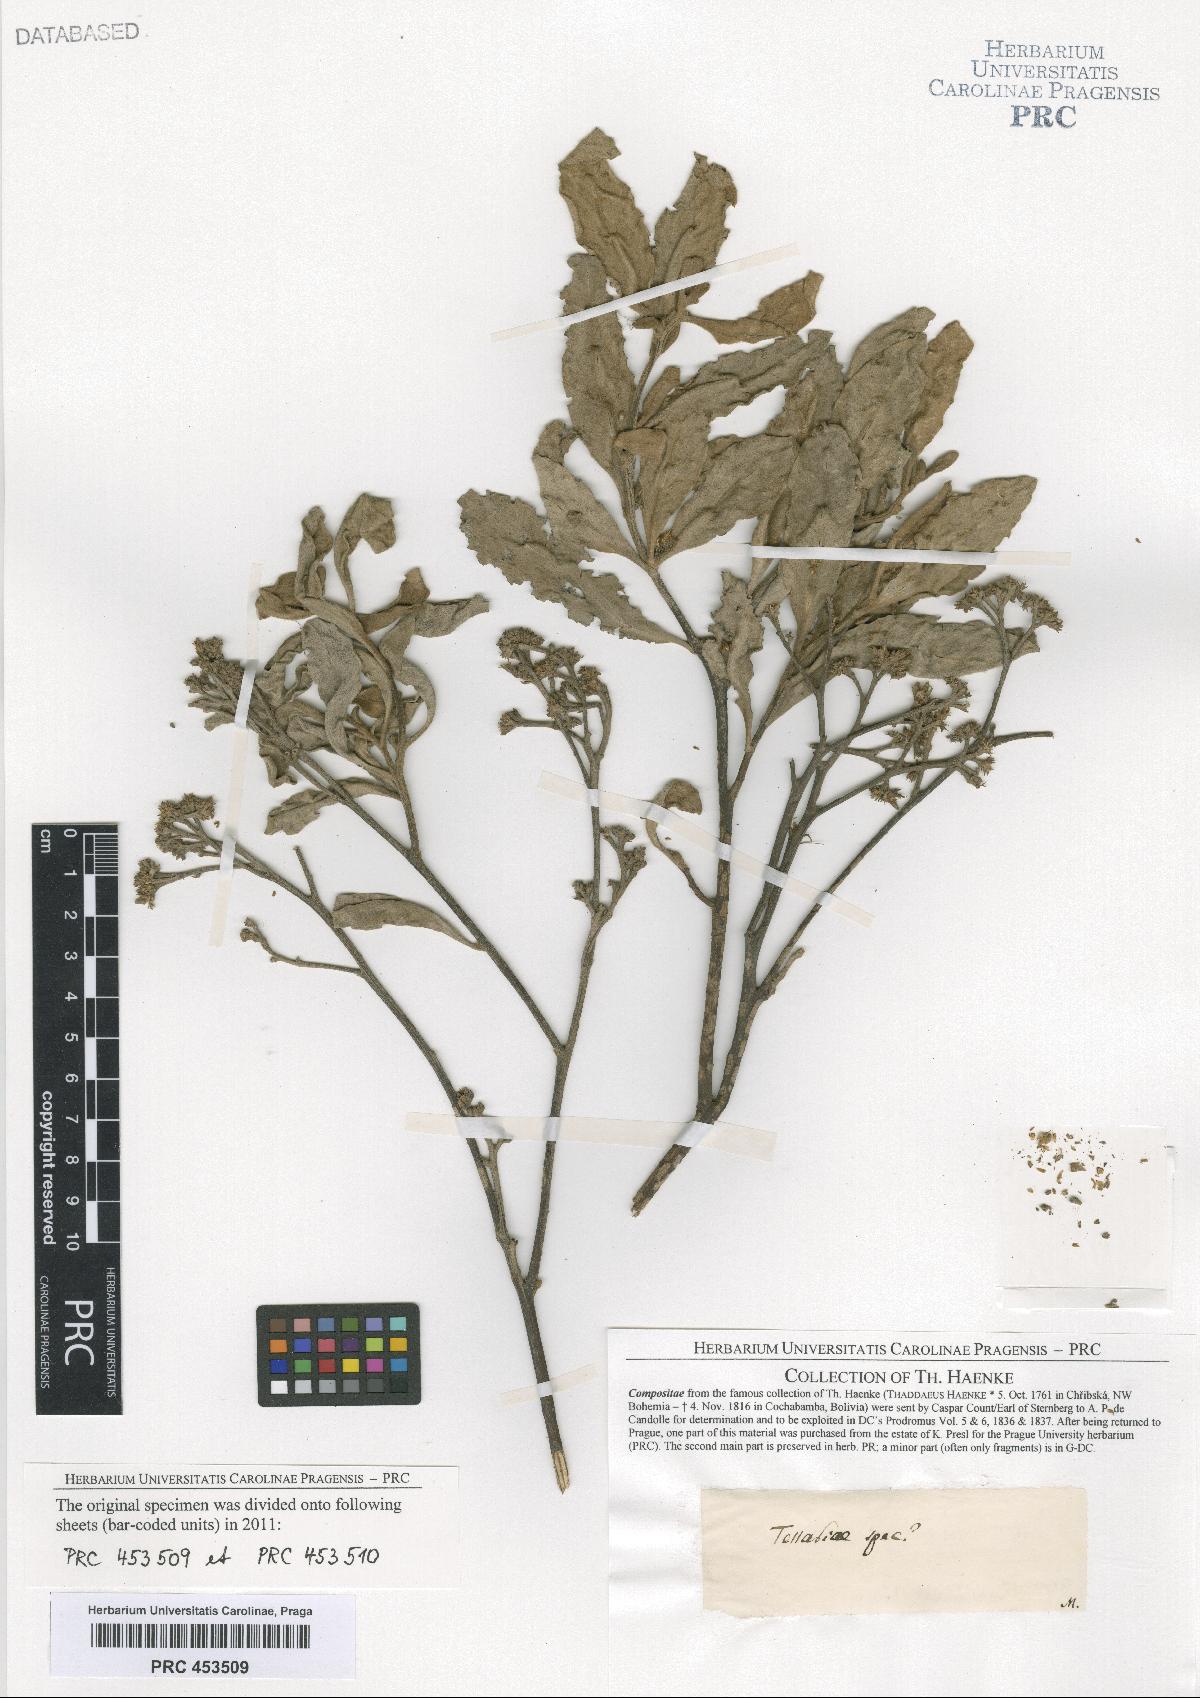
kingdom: Plantae
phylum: Tracheophyta
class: Magnoliopsida
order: Asterales
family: Asteraceae
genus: Tessaria
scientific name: Tessaria
